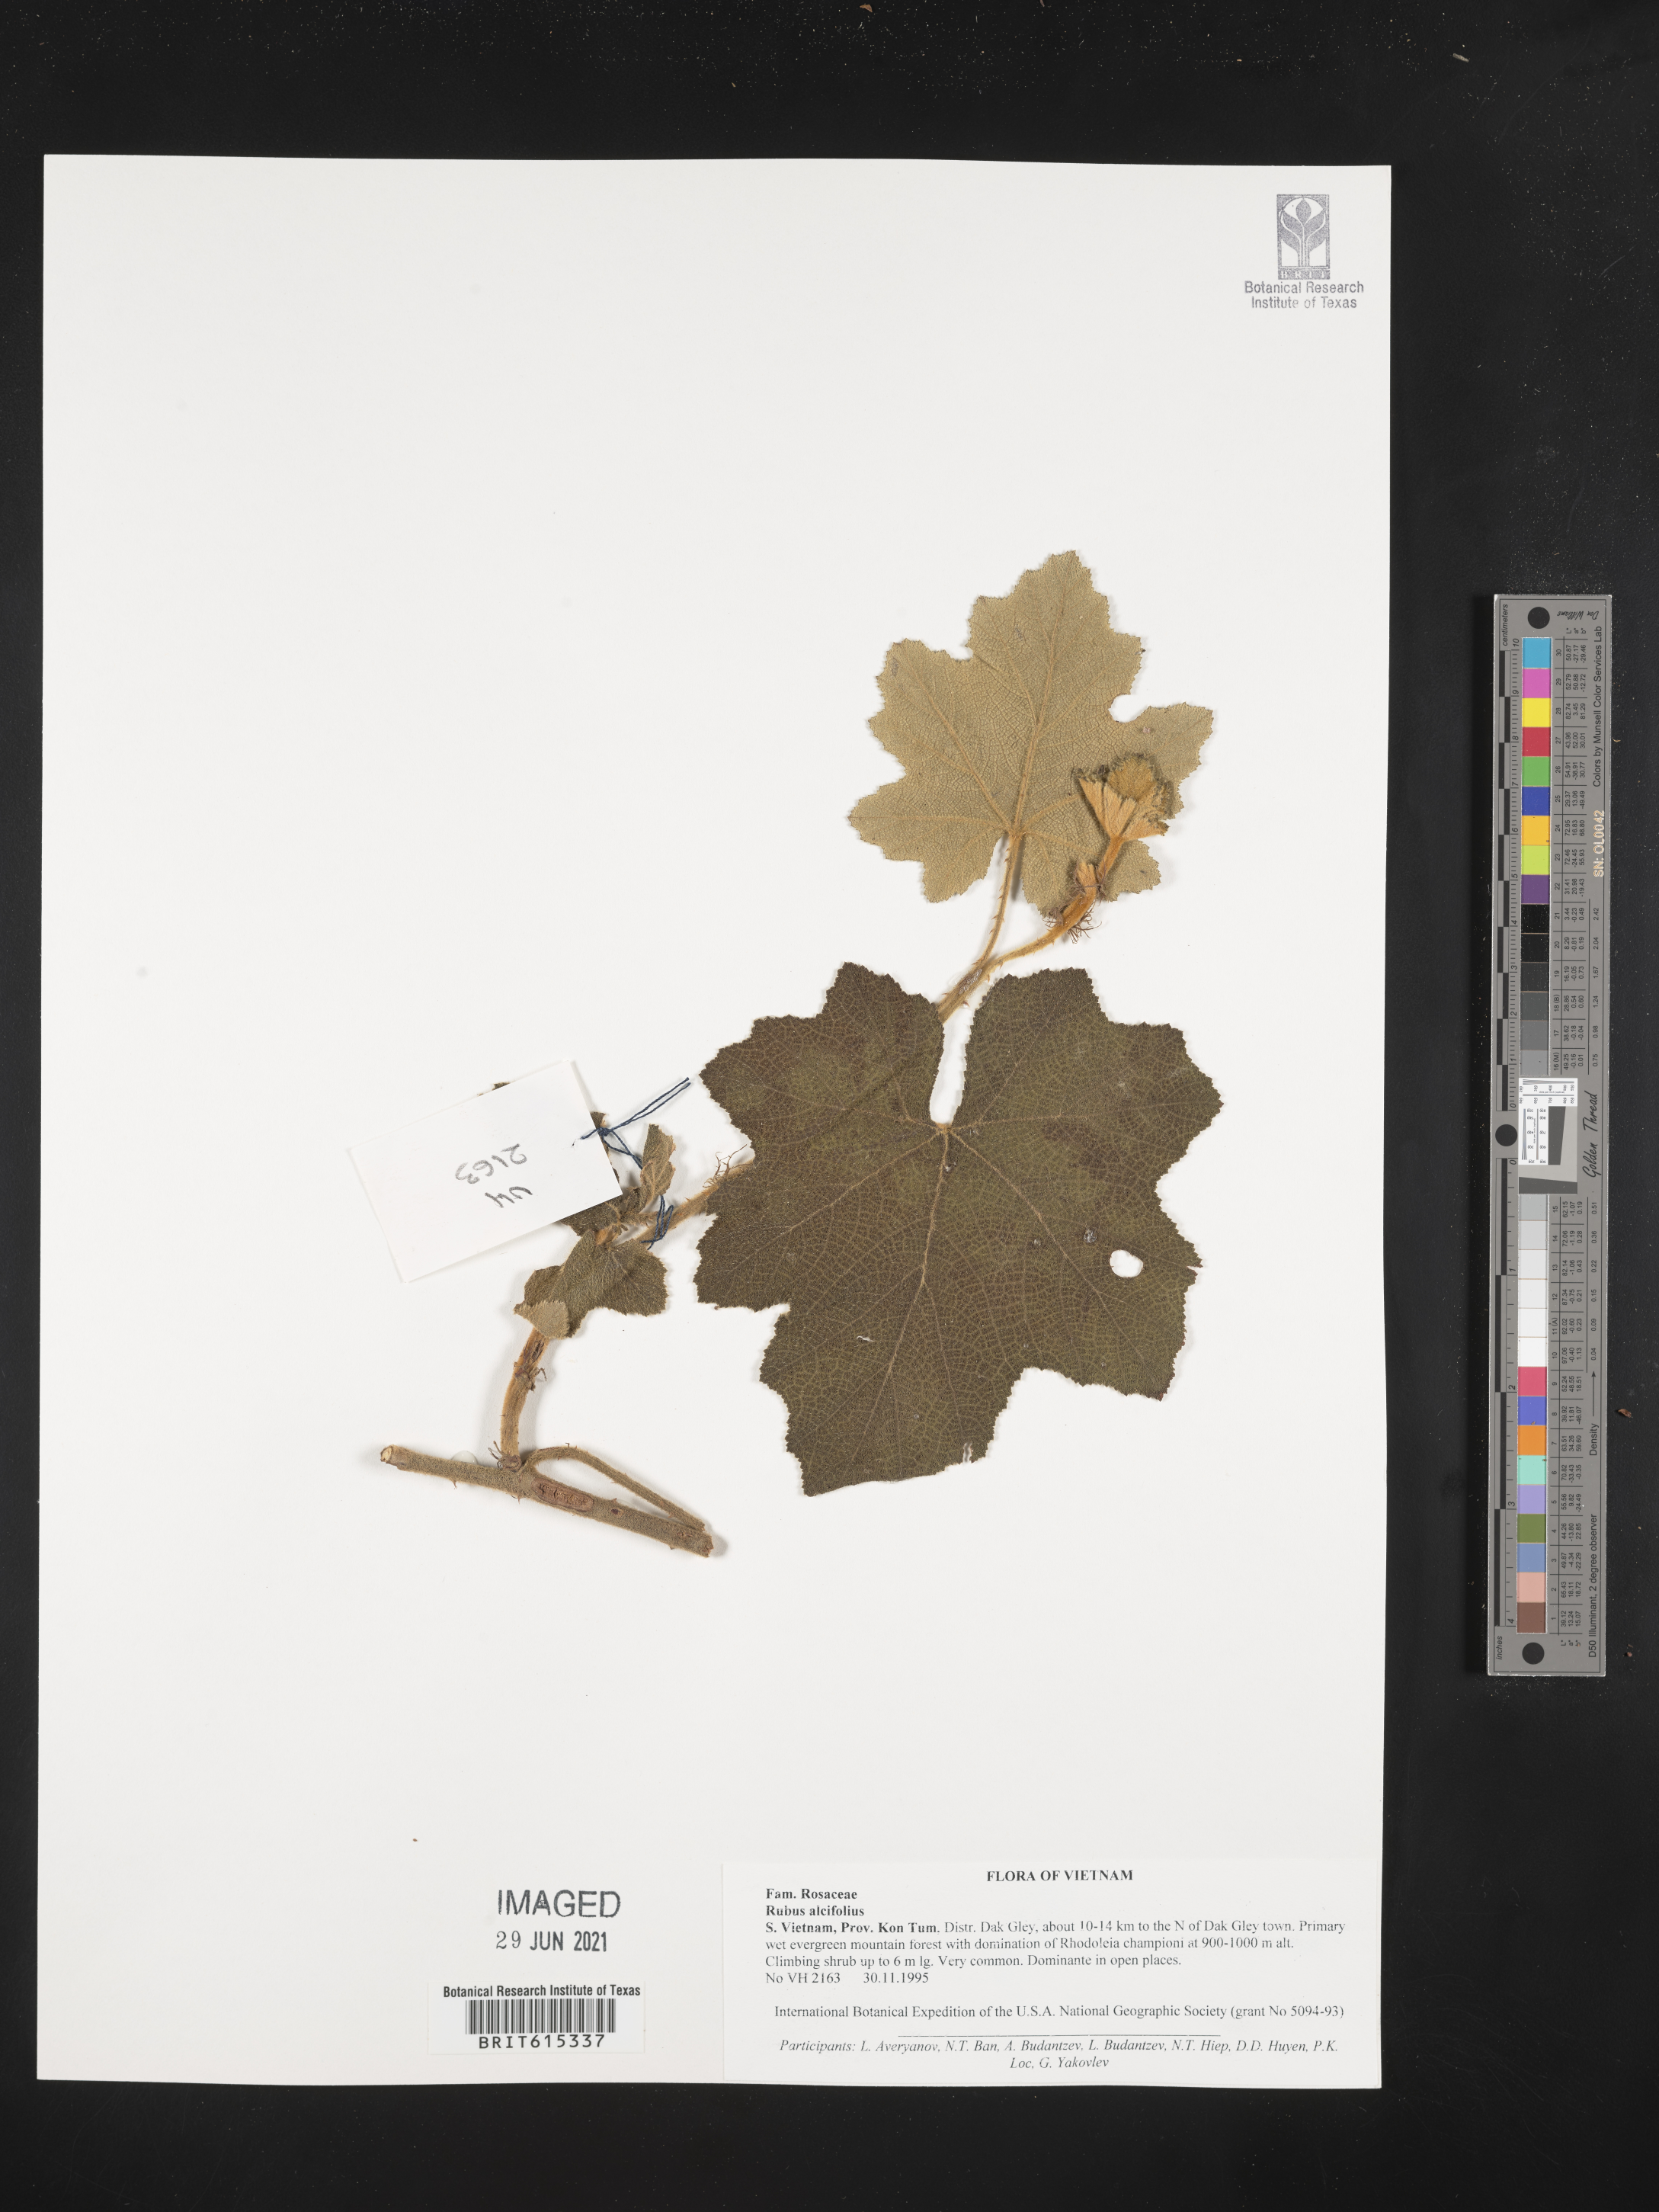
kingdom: Plantae
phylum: Tracheophyta
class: Magnoliopsida
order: Rosales
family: Rosaceae
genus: Rubus
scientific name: Rubus alceifolius
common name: Giant bramble
